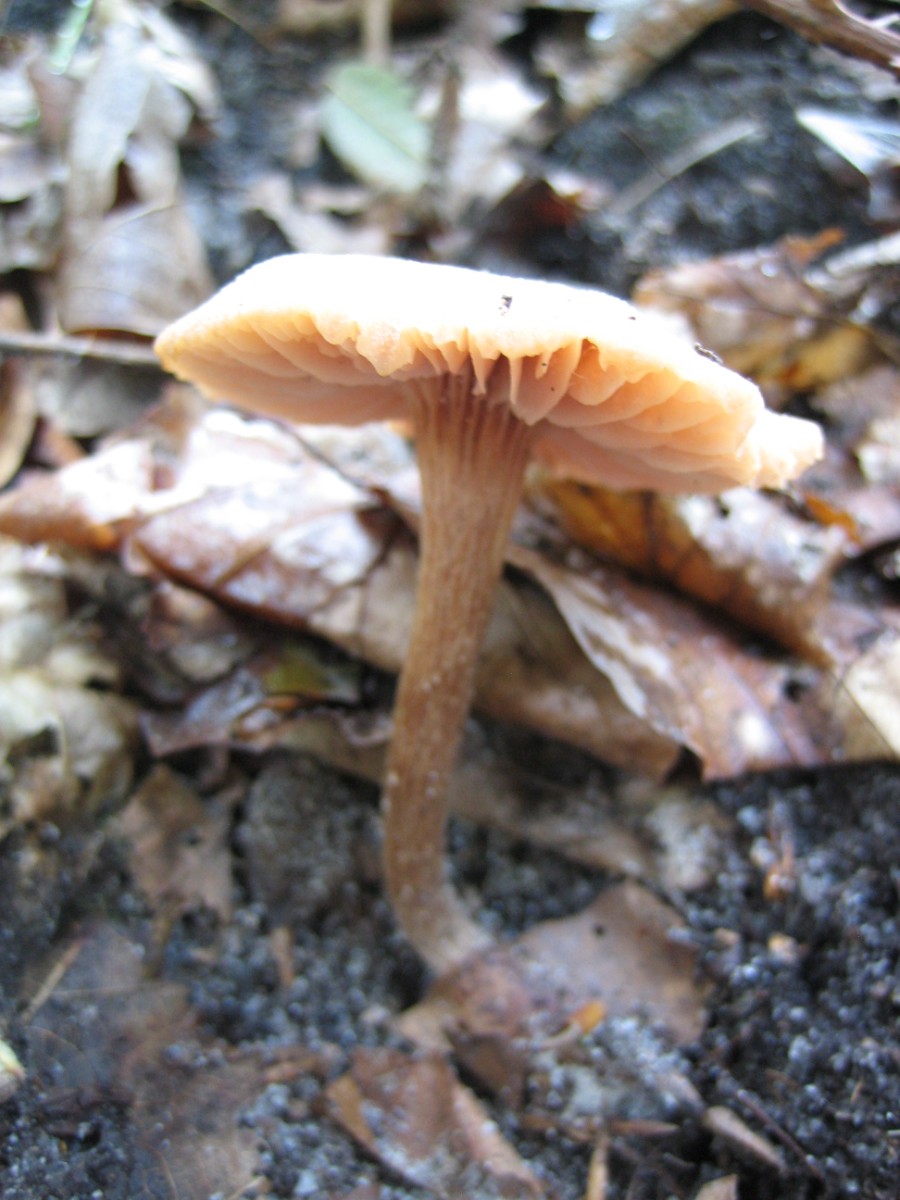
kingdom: Fungi
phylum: Basidiomycota
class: Agaricomycetes
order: Agaricales
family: Hydnangiaceae
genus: Laccaria
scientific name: Laccaria proxima
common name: stor ametysthat
